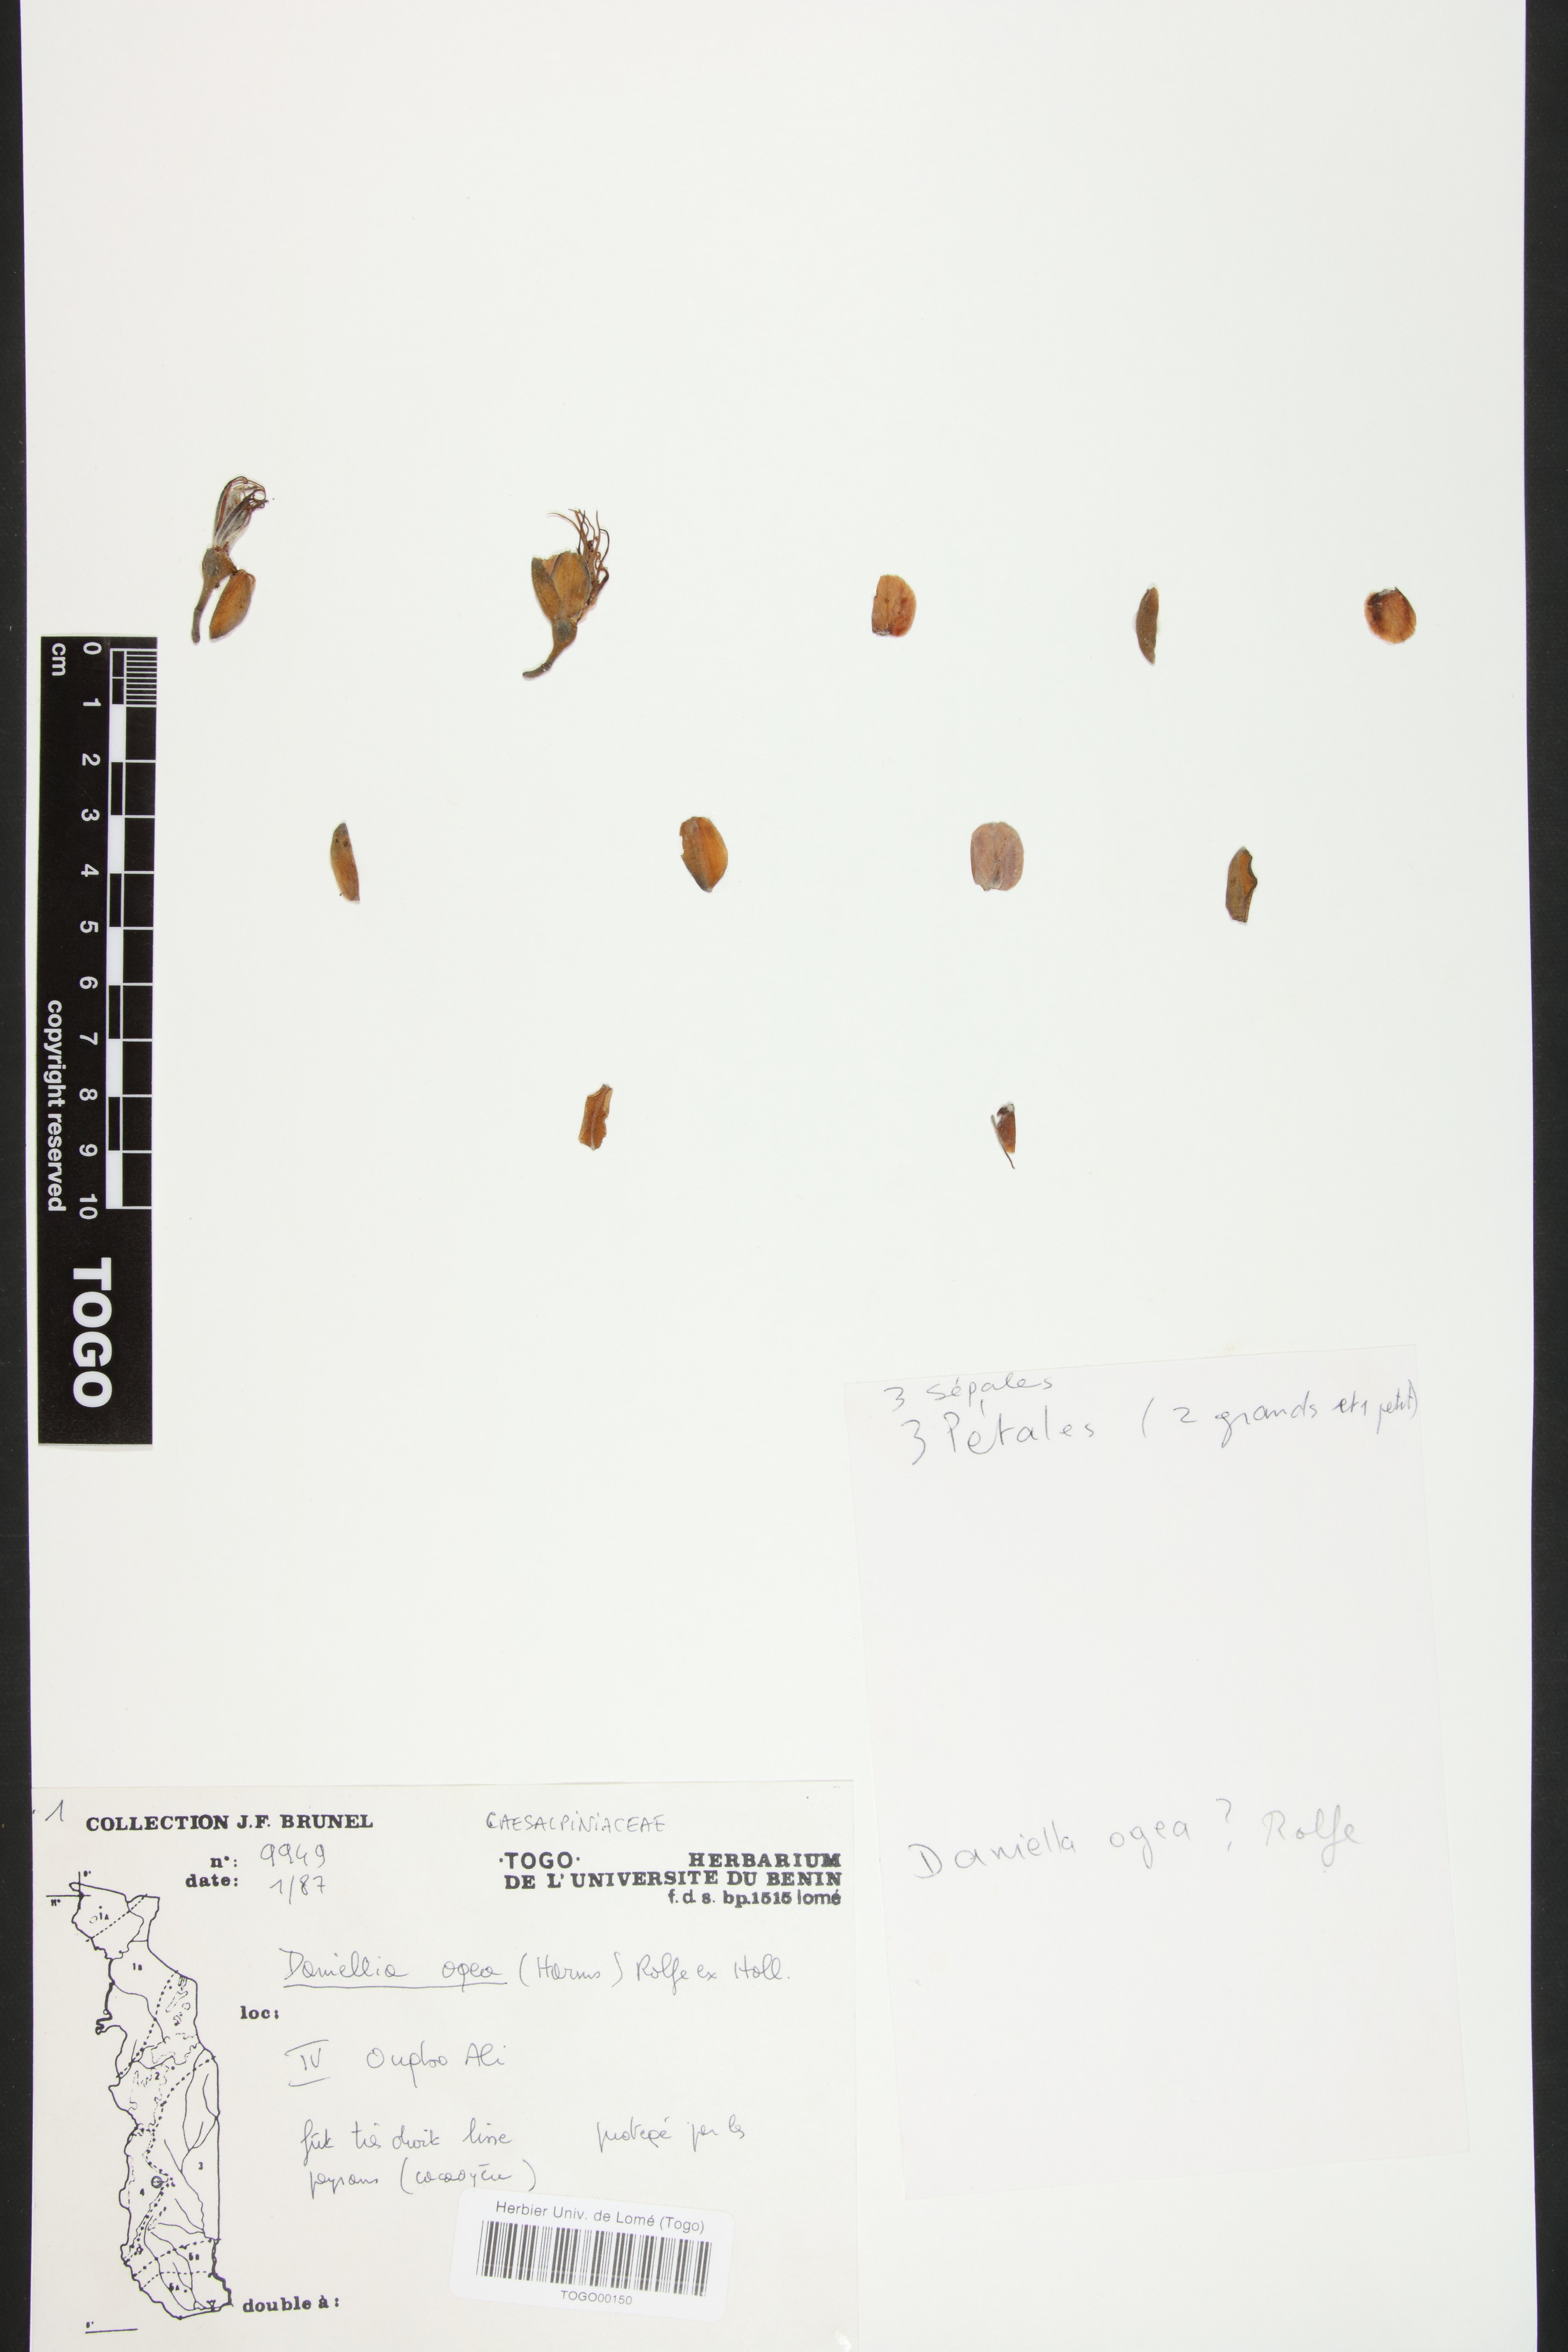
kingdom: Plantae
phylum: Tracheophyta
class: Magnoliopsida
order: Fabales
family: Fabaceae
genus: Daniellia
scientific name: Daniellia ogea
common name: Accra copal
